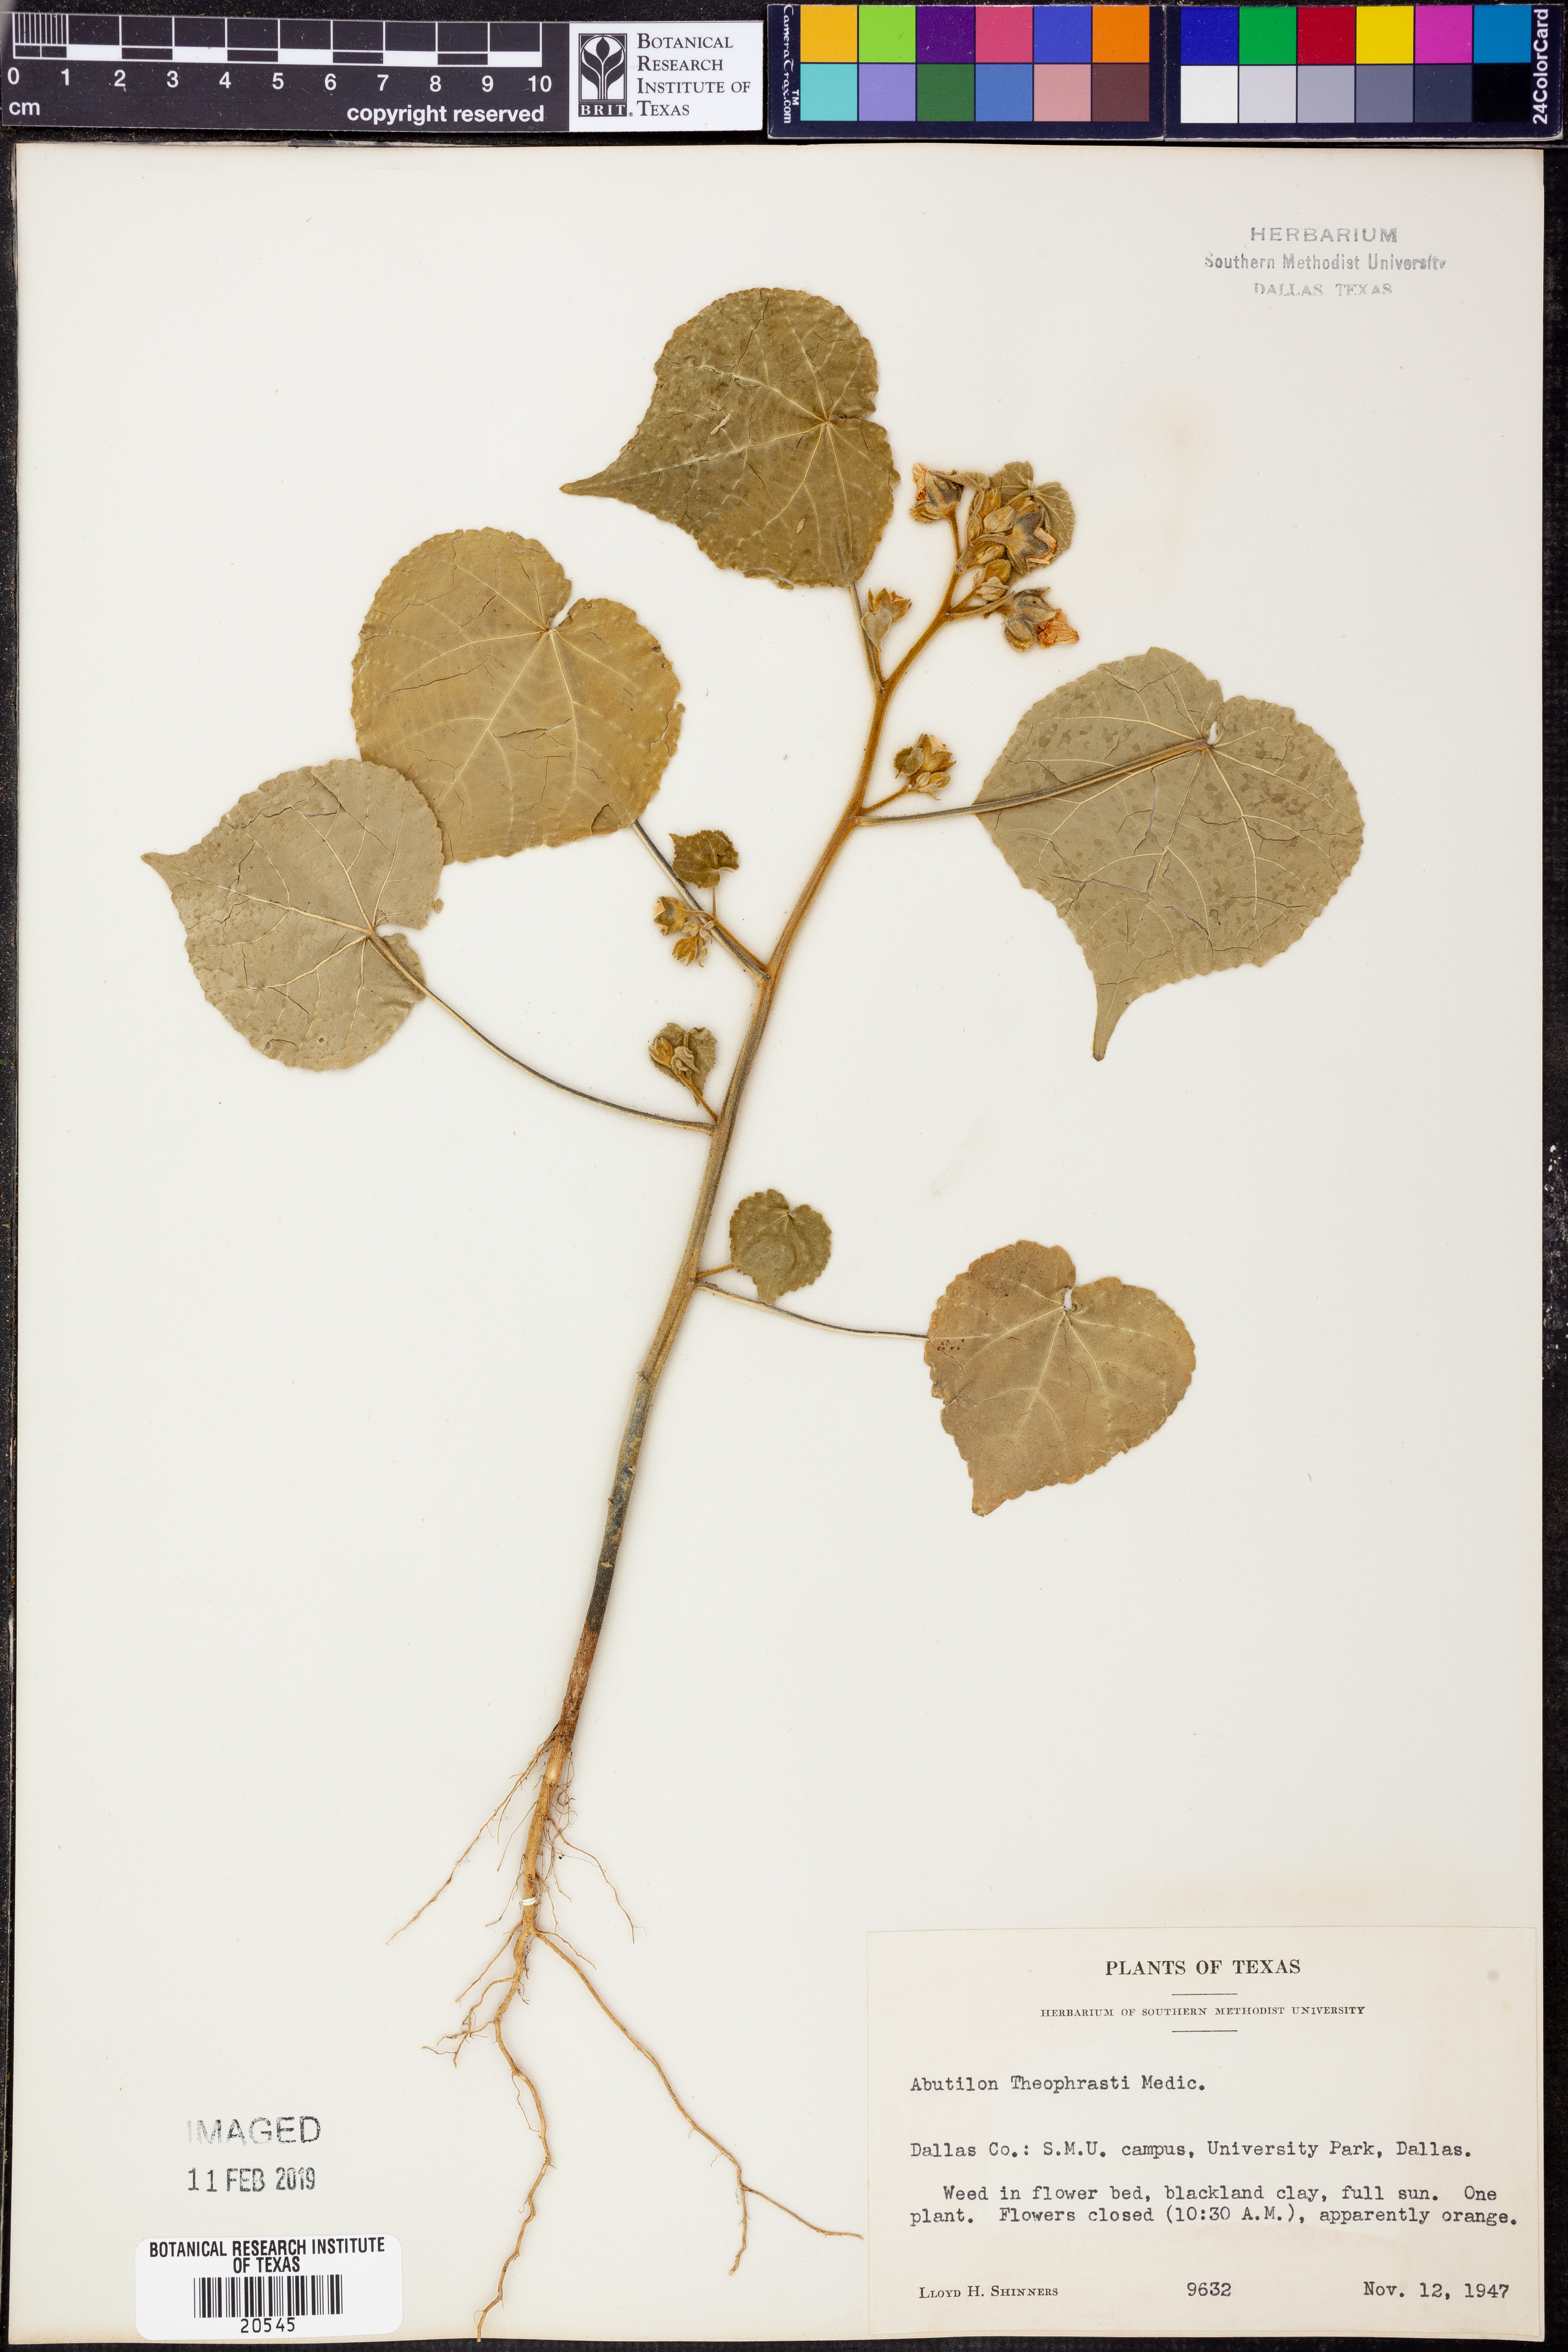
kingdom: Plantae
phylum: Tracheophyta
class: Magnoliopsida
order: Malvales
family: Malvaceae
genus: Abutilon
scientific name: Abutilon theophrasti
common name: Velvetleaf
